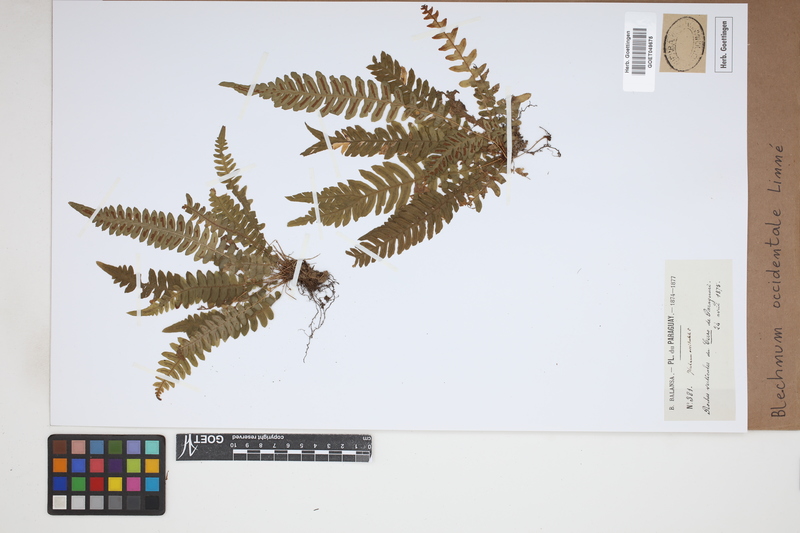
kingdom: Plantae
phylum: Tracheophyta
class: Polypodiopsida
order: Polypodiales
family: Blechnaceae
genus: Blechnum
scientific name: Blechnum occidentale
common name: Hammock fern
